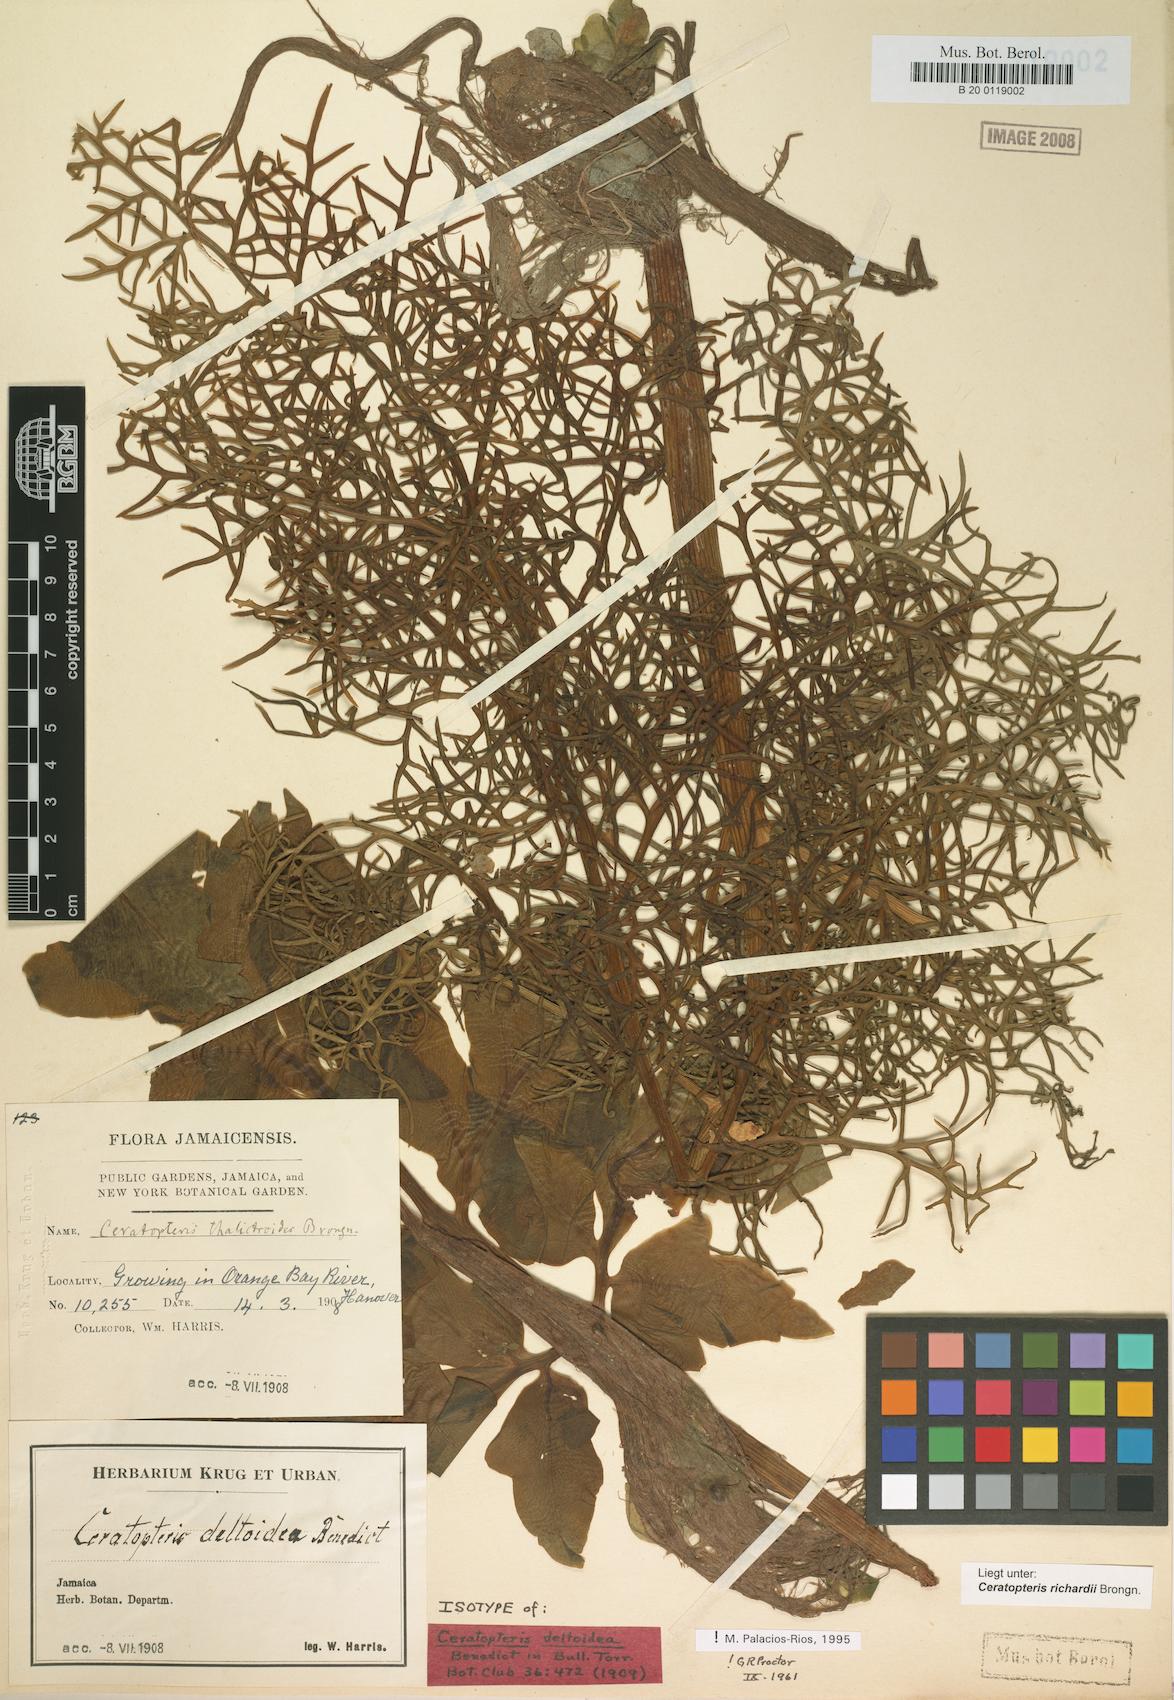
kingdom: Plantae
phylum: Tracheophyta
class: Polypodiopsida
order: Polypodiales
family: Pteridaceae
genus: Ceratopteris
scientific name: Ceratopteris richardii
